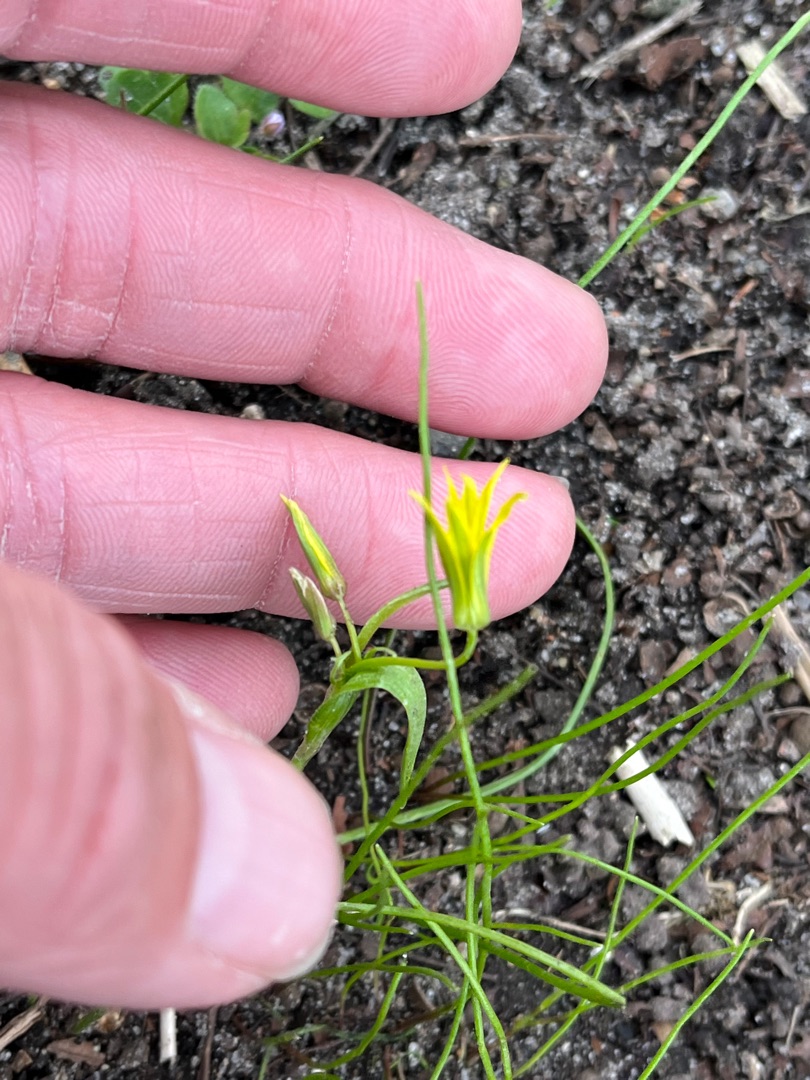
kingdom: Plantae
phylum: Tracheophyta
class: Liliopsida
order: Liliales
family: Liliaceae
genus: Gagea
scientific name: Gagea minima
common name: Liden guldstjerne
